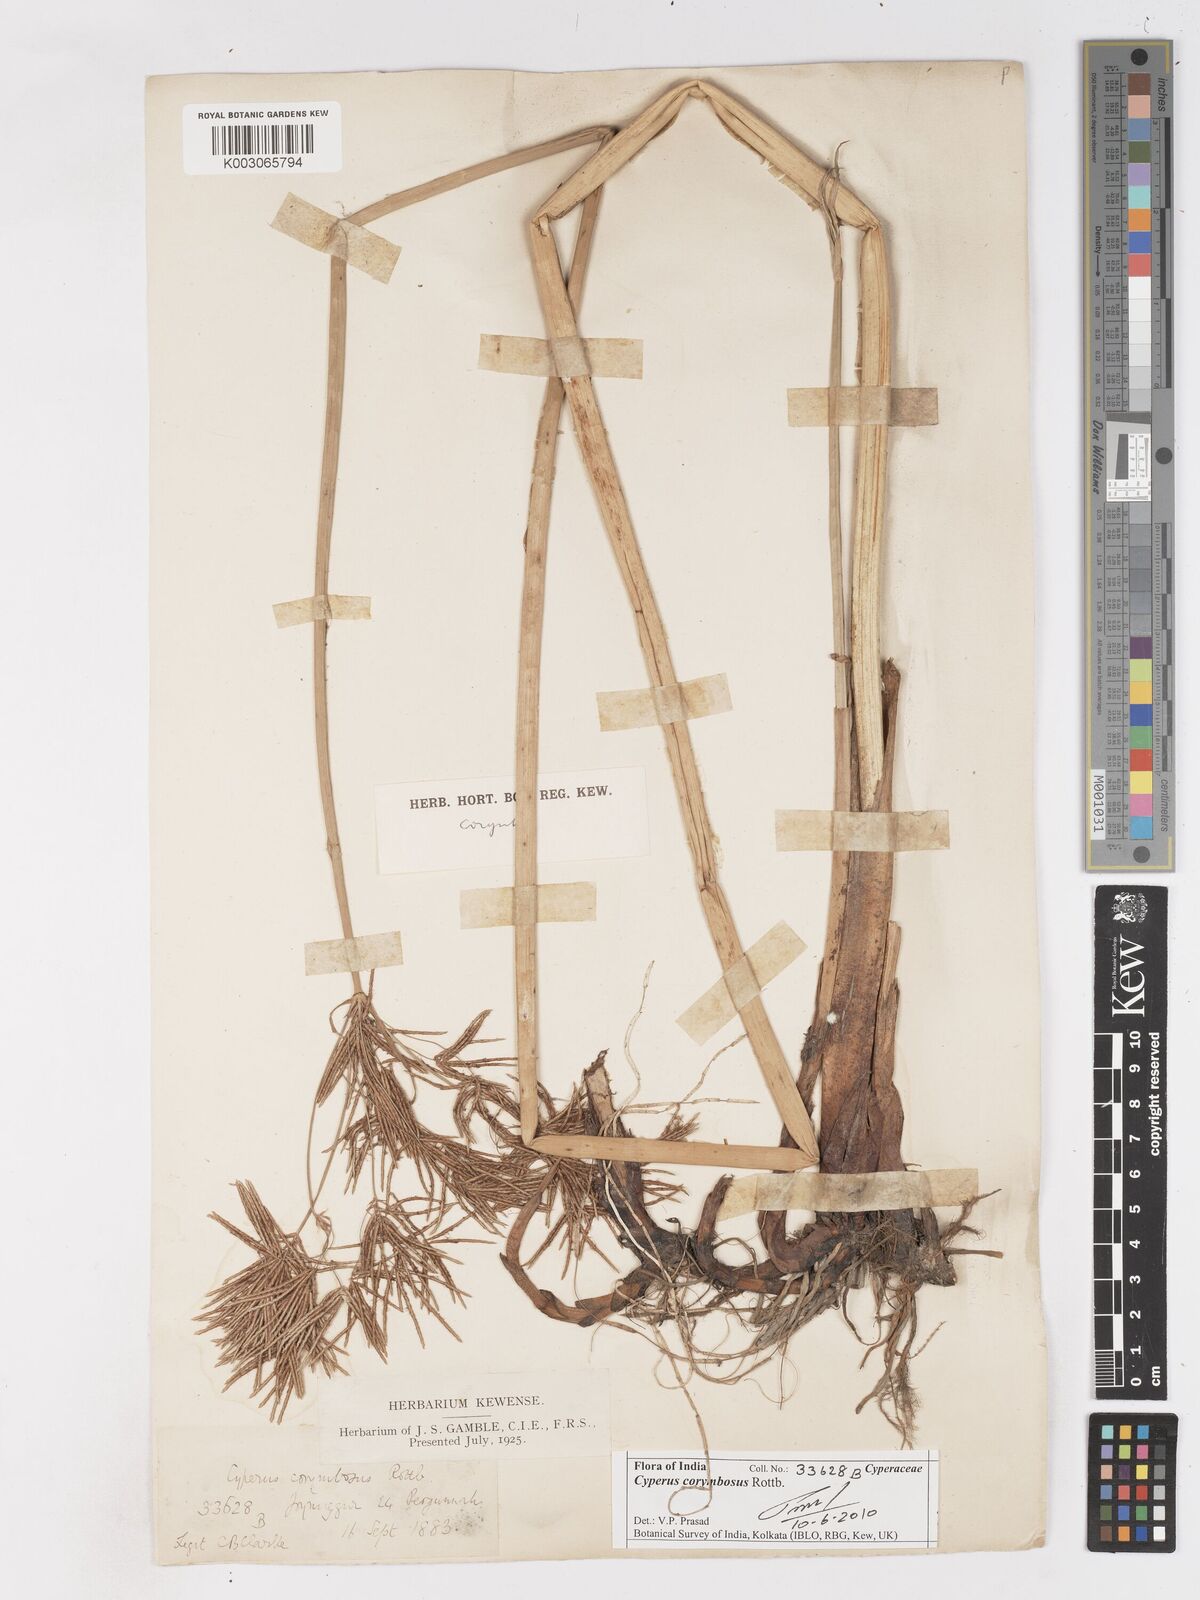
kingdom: Plantae
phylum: Tracheophyta
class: Liliopsida
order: Poales
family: Cyperaceae
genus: Cyperus
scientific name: Cyperus corymbosus
